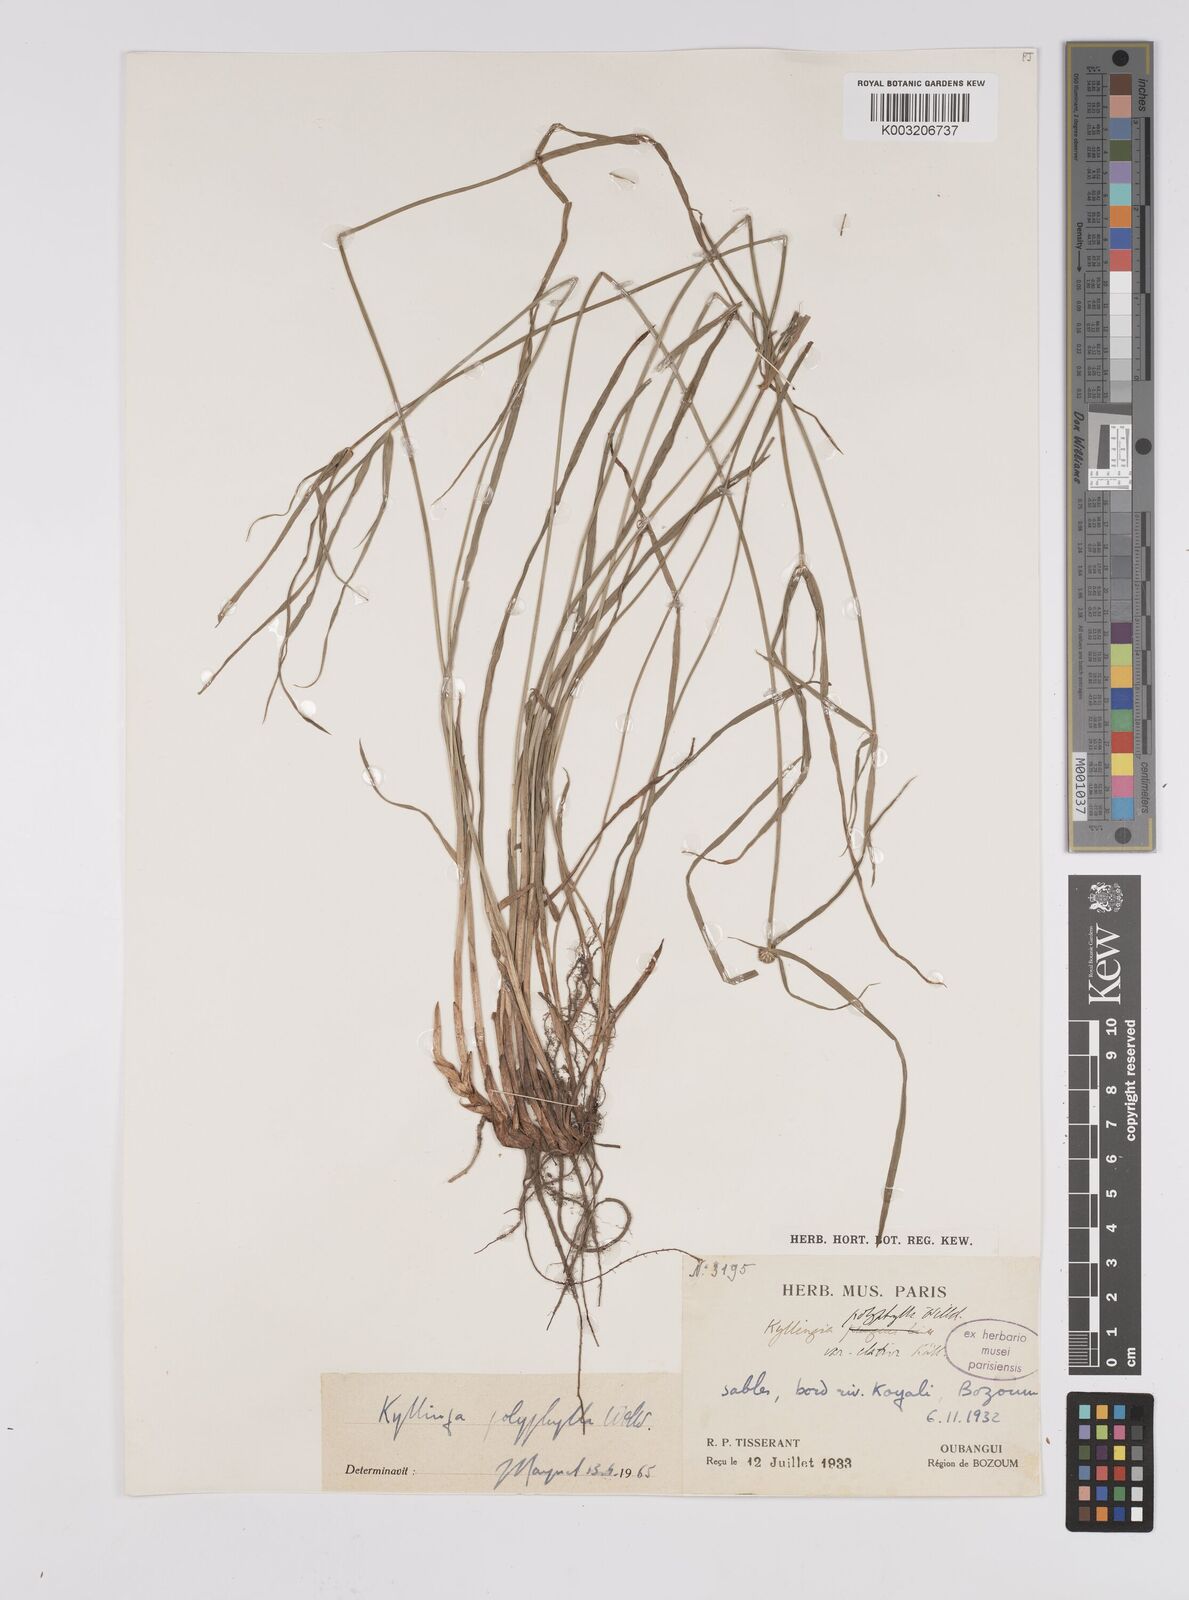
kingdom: Plantae
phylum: Tracheophyta
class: Liliopsida
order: Poales
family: Cyperaceae
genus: Cyperus
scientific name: Cyperus
